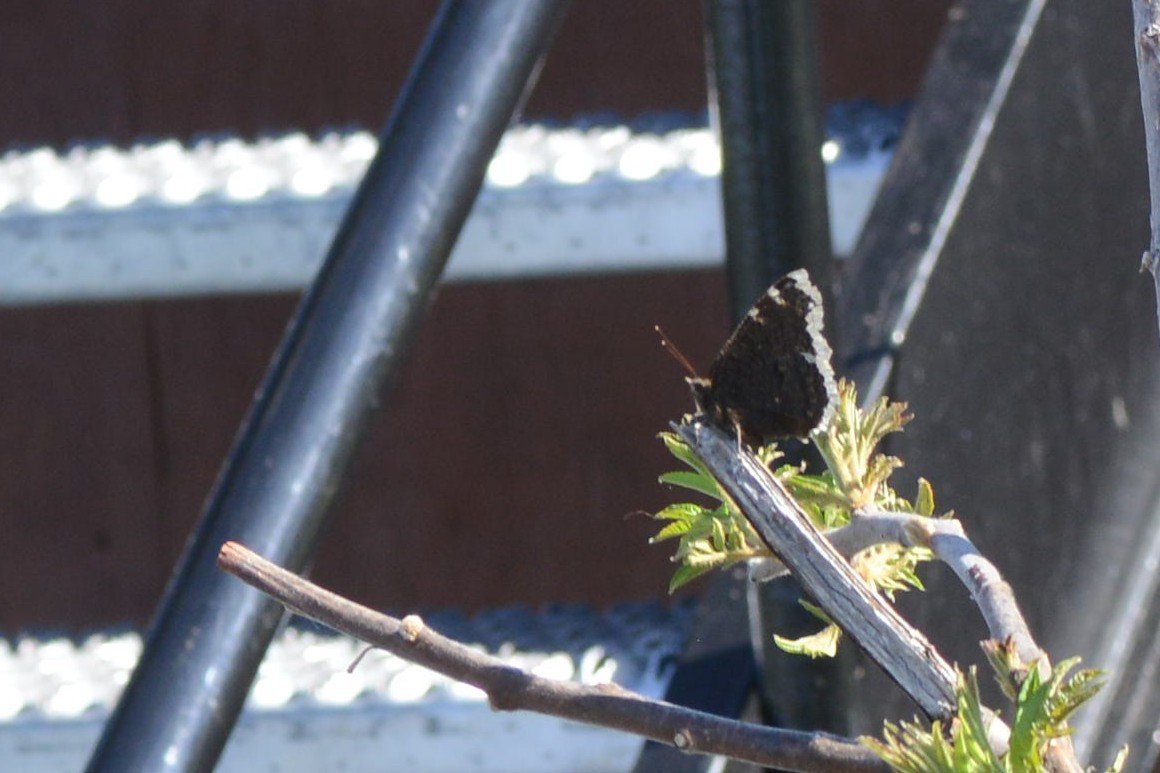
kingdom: Animalia
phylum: Arthropoda
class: Insecta
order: Lepidoptera
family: Nymphalidae
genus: Nymphalis
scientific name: Nymphalis antiopa
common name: Mourning Cloak
